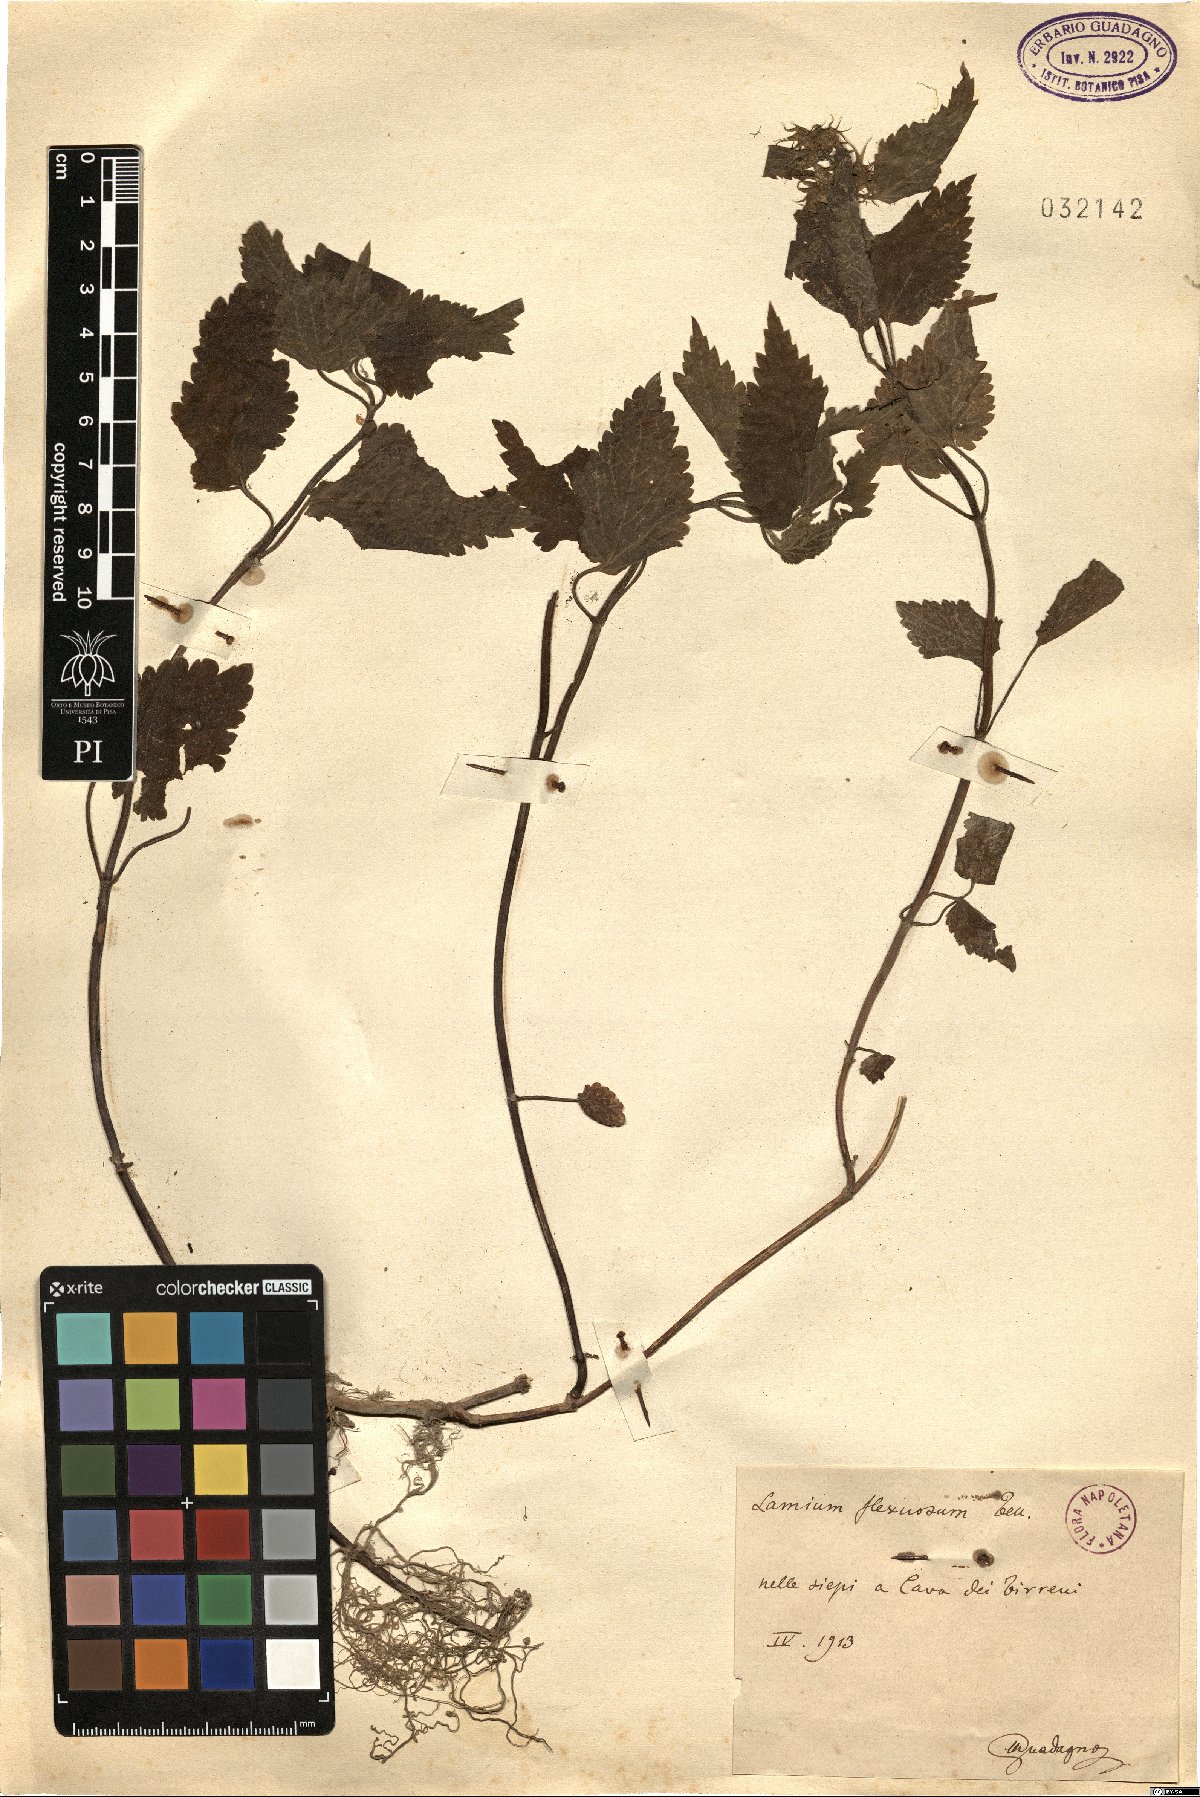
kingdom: Plantae
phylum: Tracheophyta
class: Magnoliopsida
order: Lamiales
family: Lamiaceae
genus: Lamium
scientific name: Lamium flexuosum
